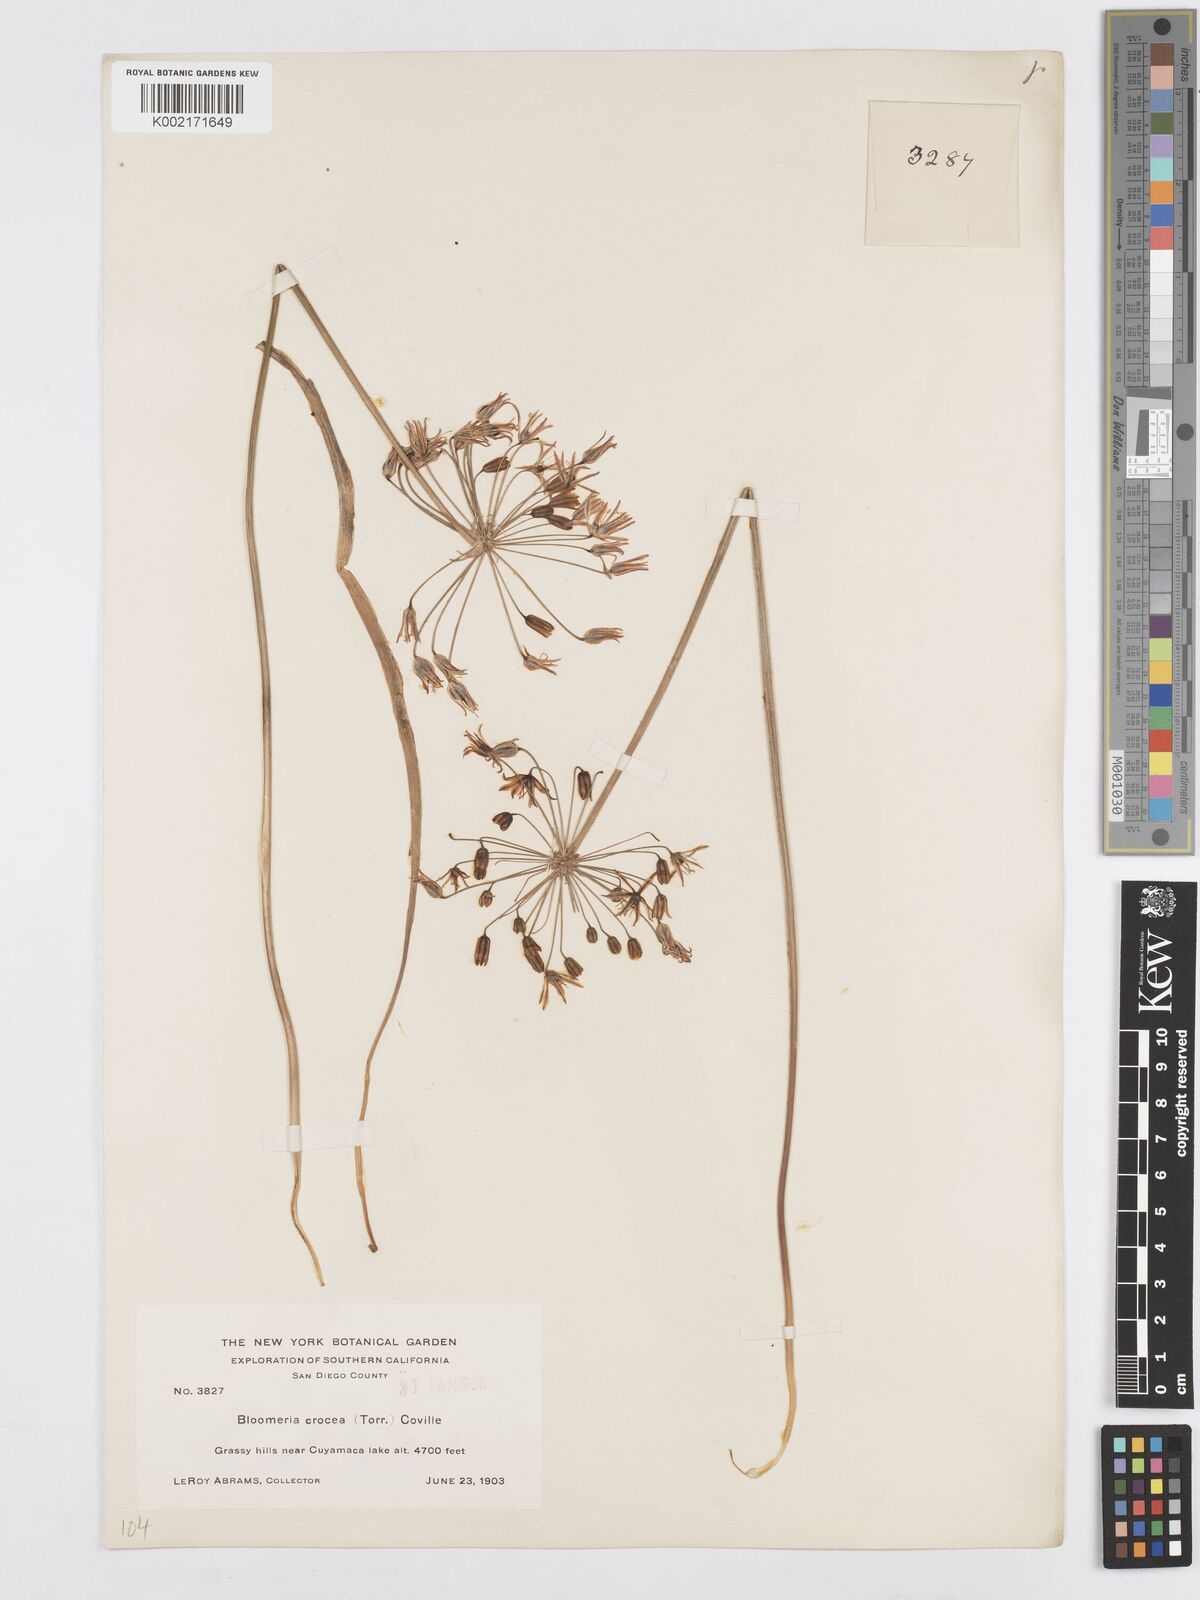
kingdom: Plantae
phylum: Tracheophyta
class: Liliopsida
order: Asparagales
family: Asparagaceae
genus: Bloomeria
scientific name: Bloomeria crocea
